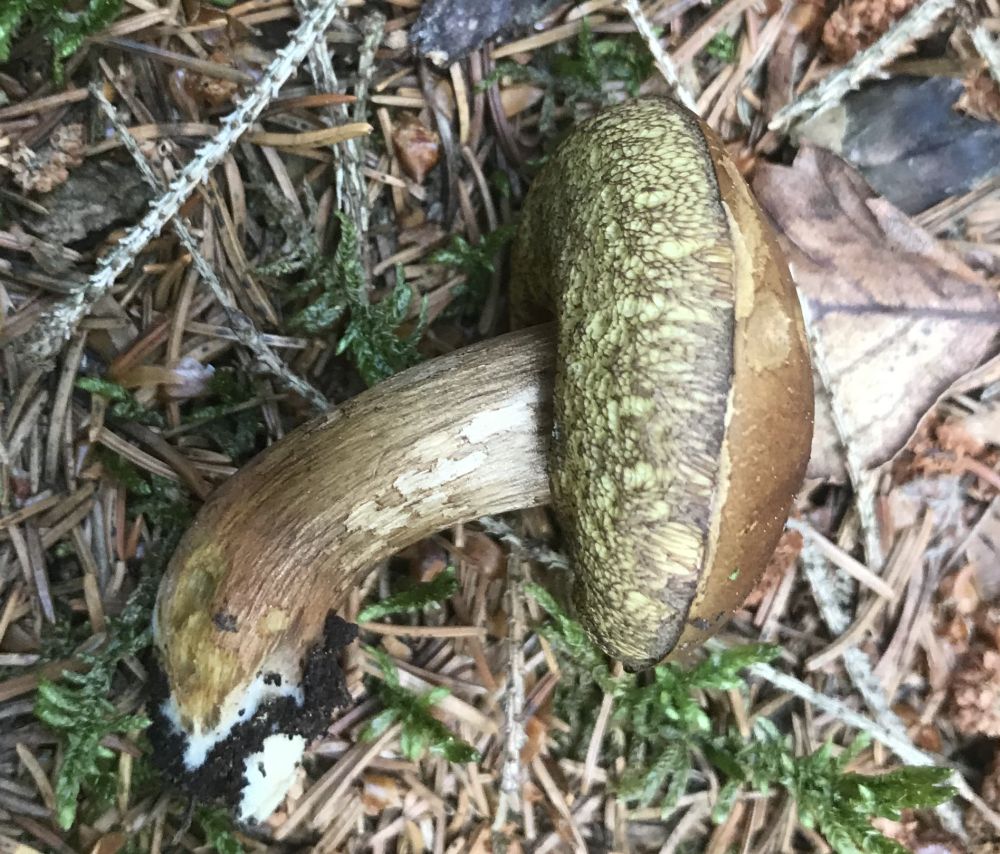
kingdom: Fungi
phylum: Basidiomycota
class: Agaricomycetes
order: Boletales
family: Boletaceae
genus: Imleria
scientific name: Imleria badia
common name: brunstokket rørhat
